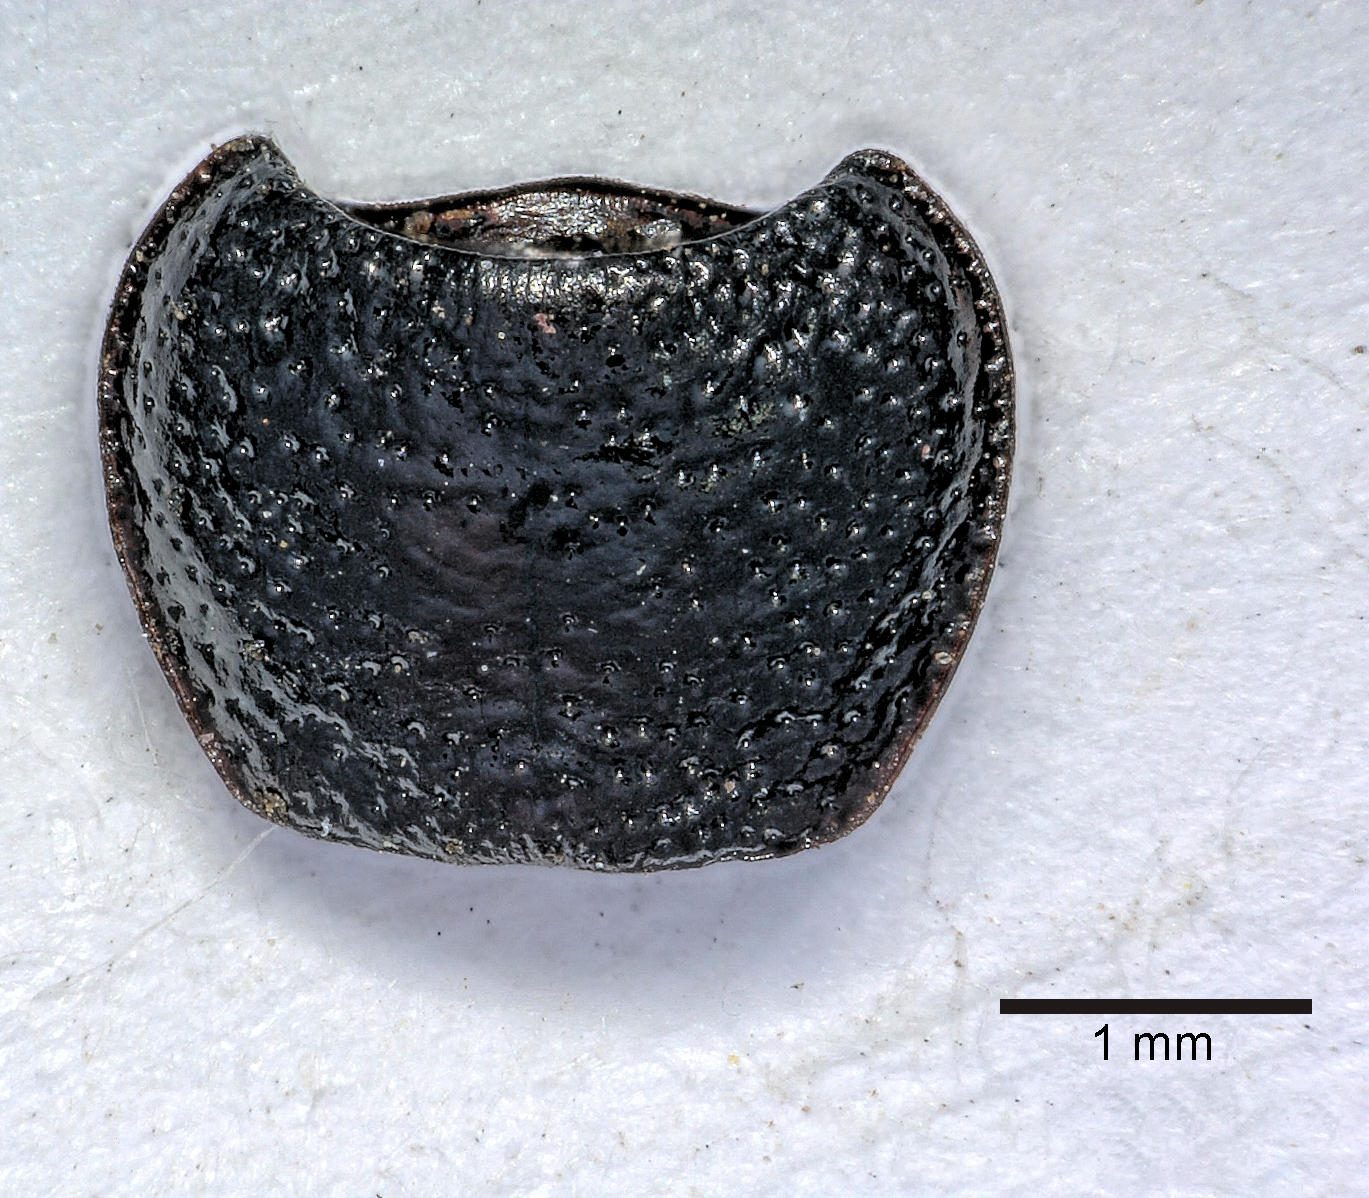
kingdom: Animalia
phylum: Arthropoda
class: Insecta
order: Coleoptera
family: Carabidae
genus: Dicheirus
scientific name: Dicheirus dilatatus
